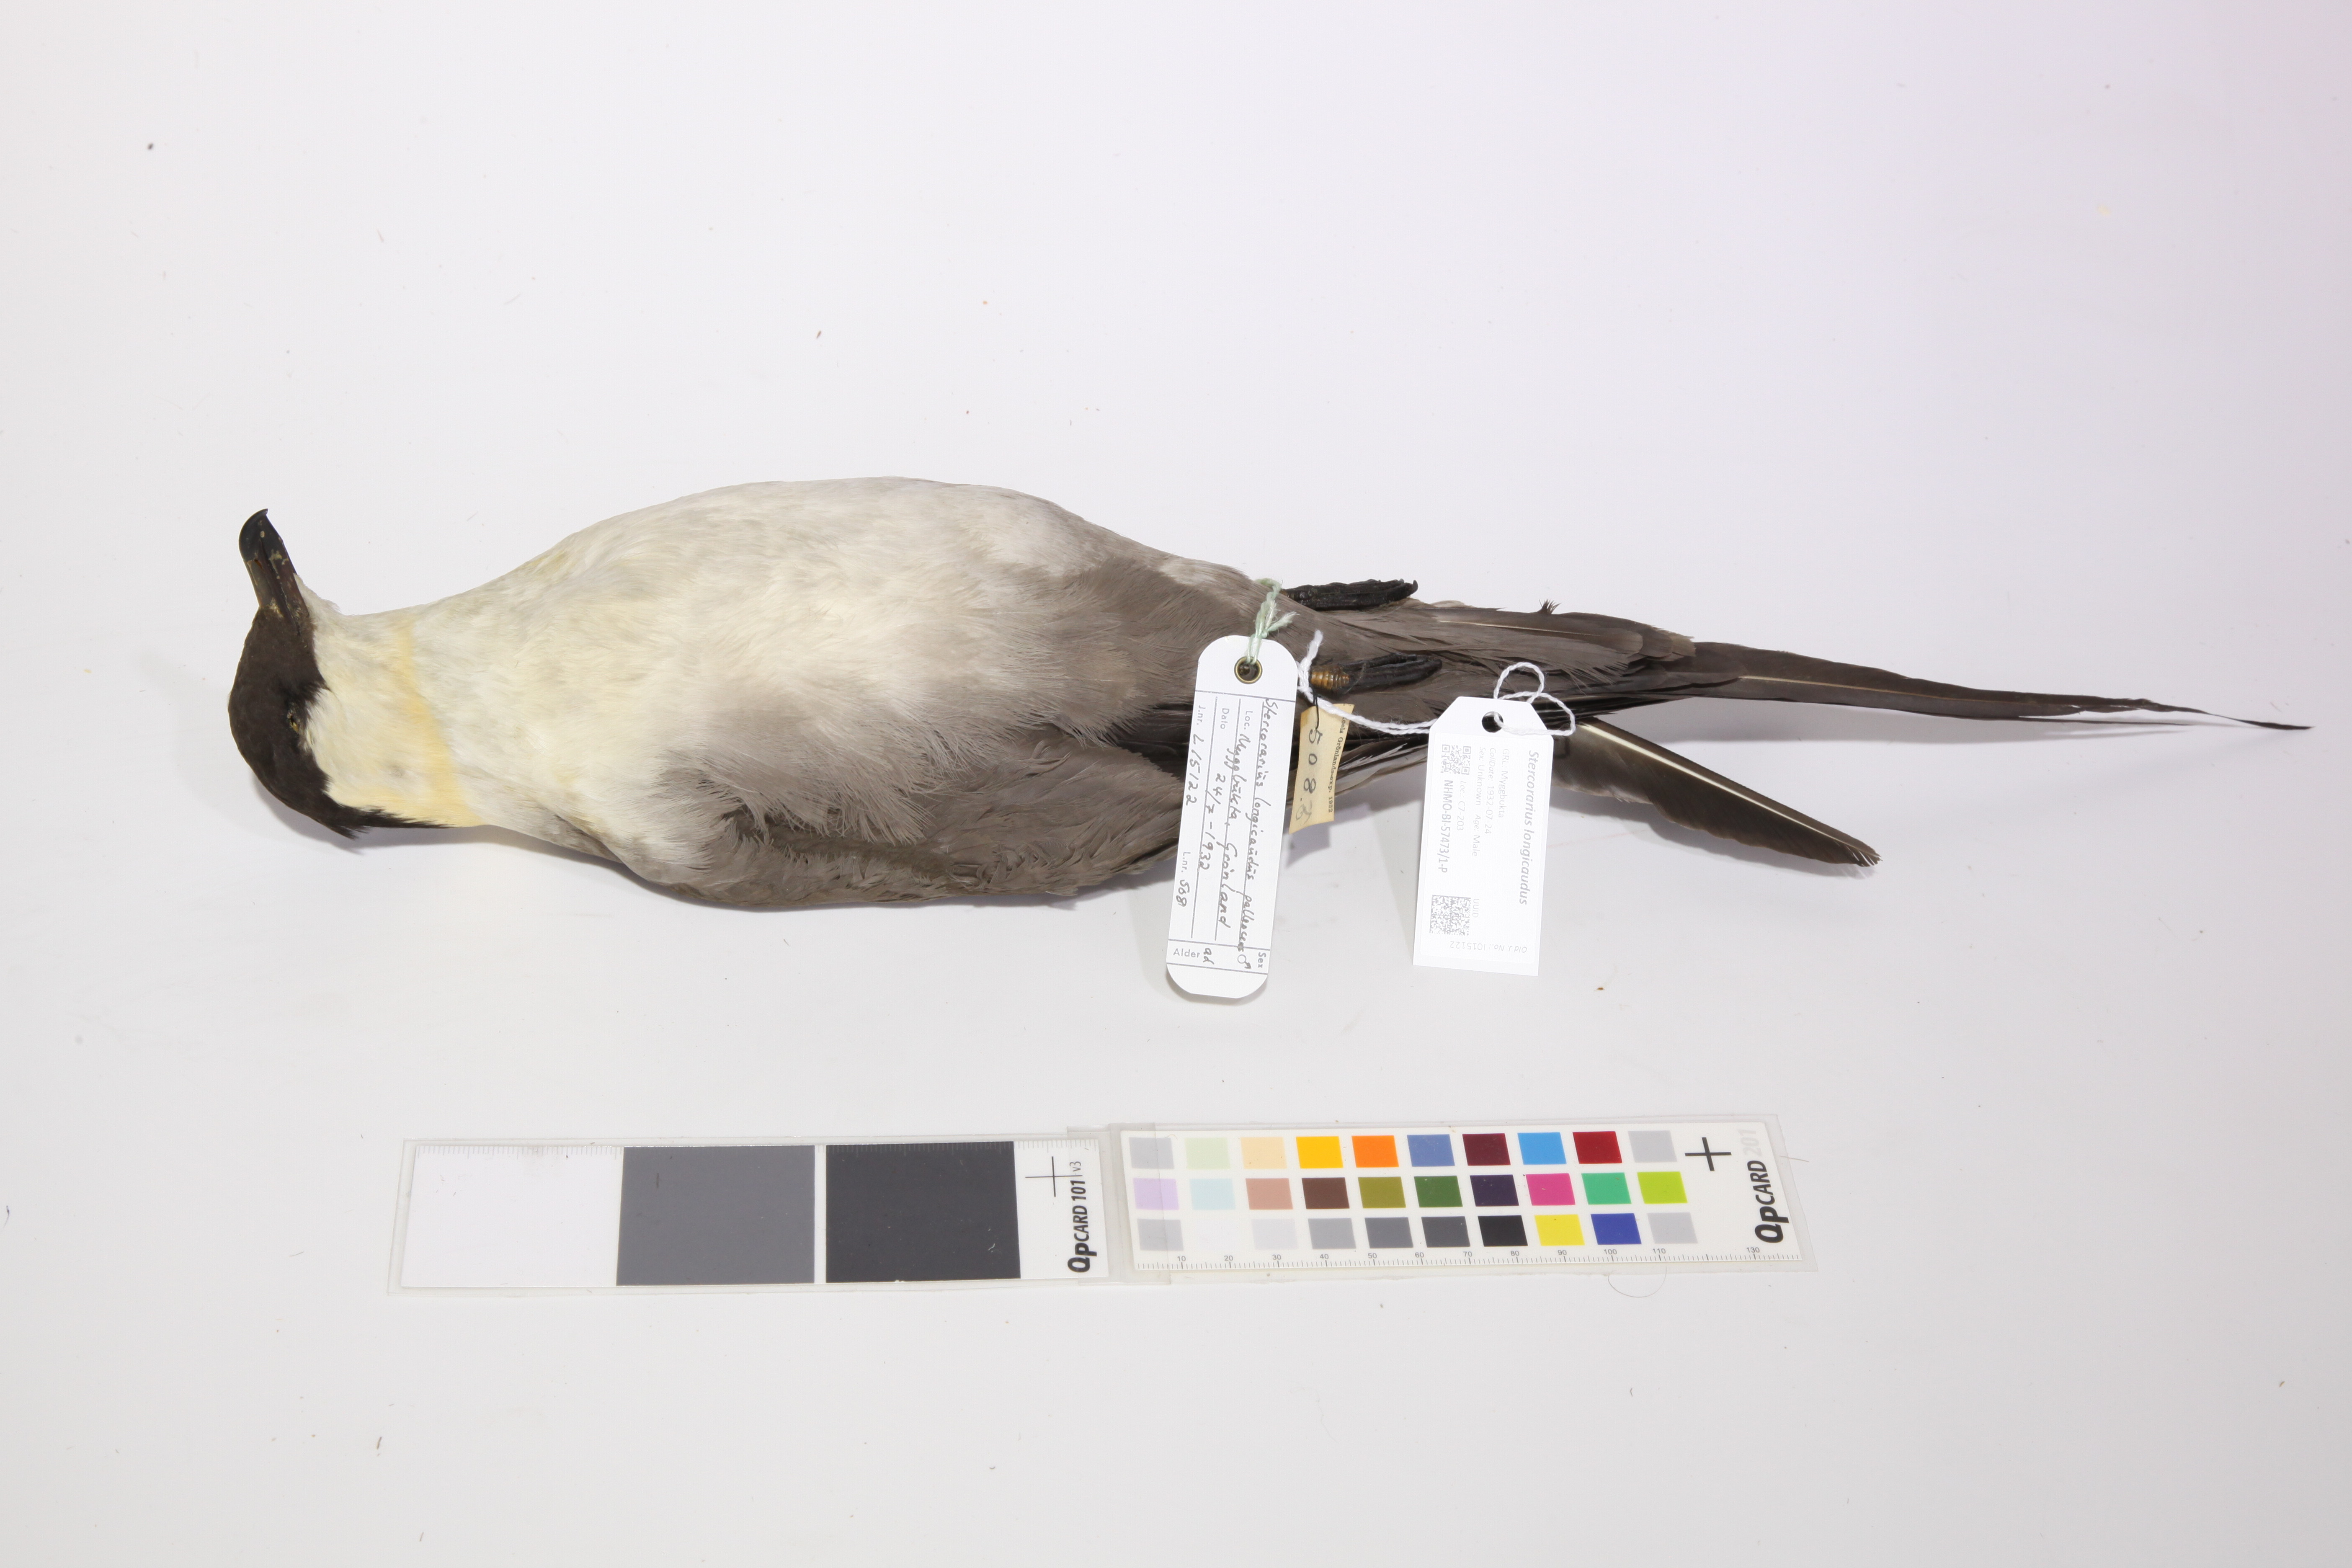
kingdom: Animalia
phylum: Chordata
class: Aves
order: Charadriiformes
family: Stercorariidae
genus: Stercorarius
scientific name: Stercorarius longicaudus
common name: Long-tailed jaeger
